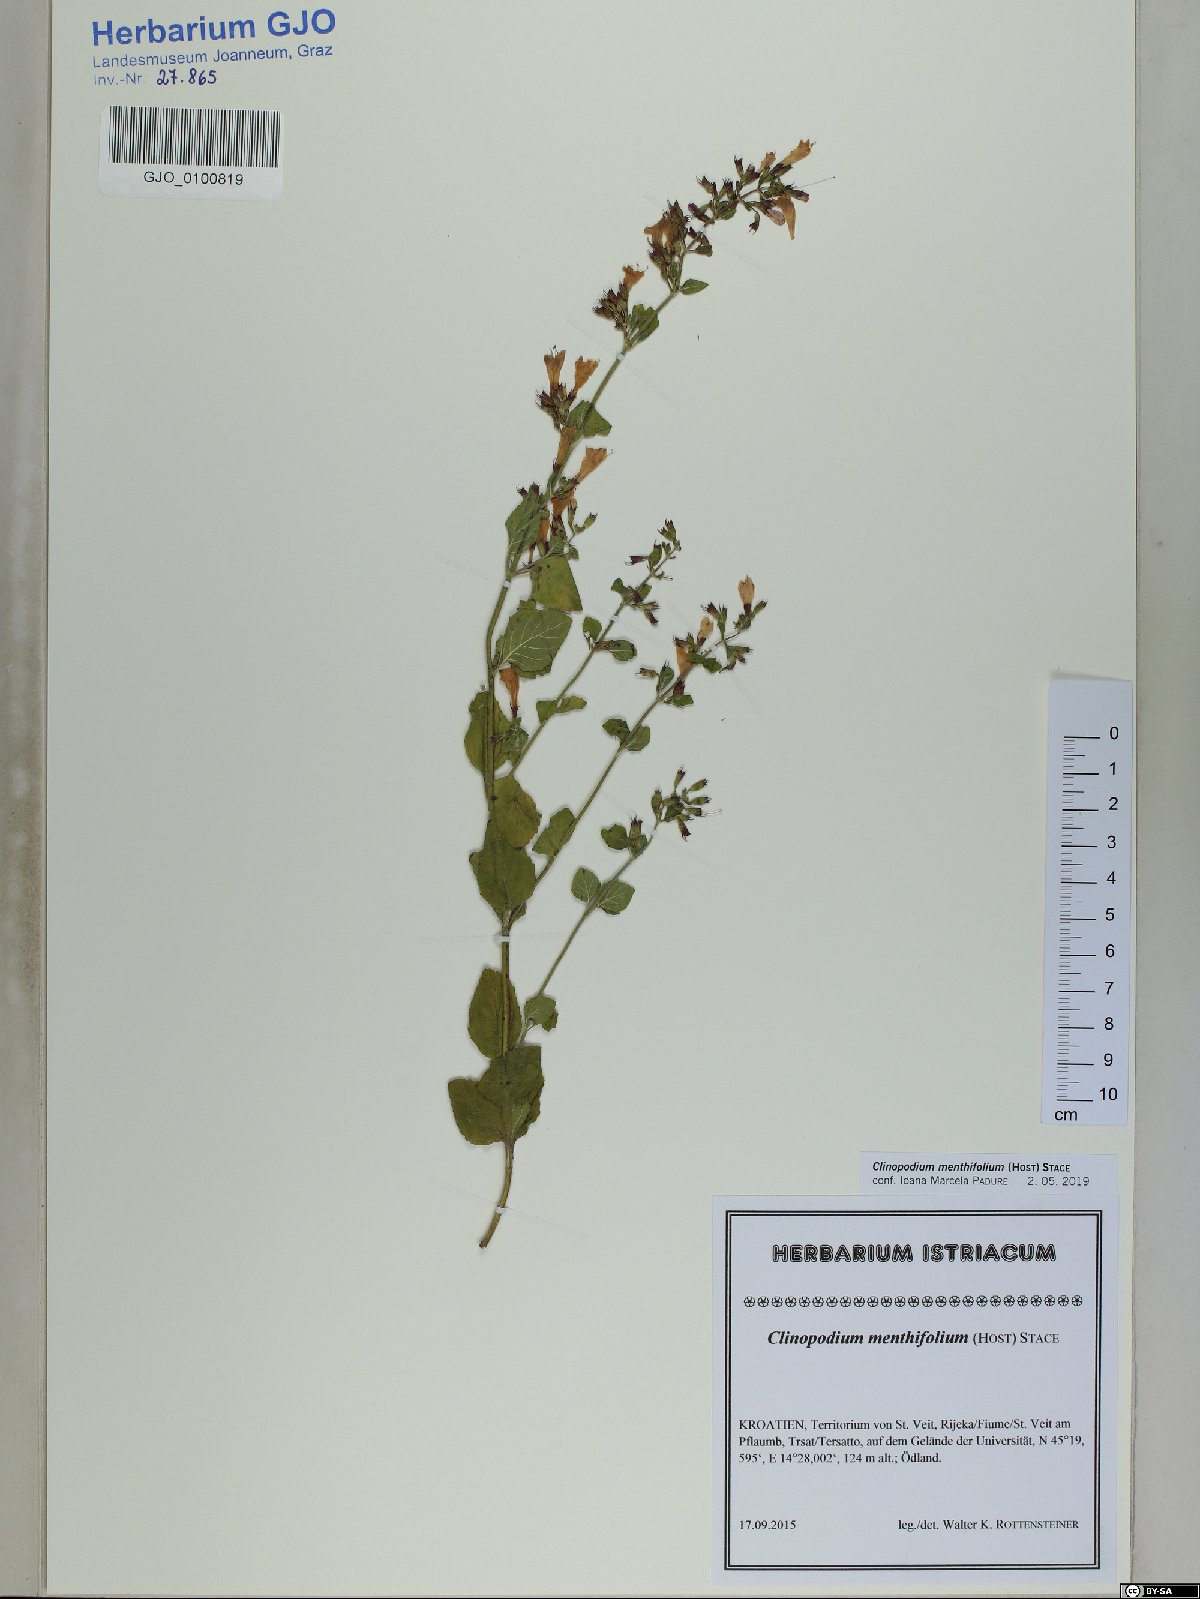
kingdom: Plantae
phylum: Tracheophyta
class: Magnoliopsida
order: Lamiales
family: Lamiaceae
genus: Clinopodium
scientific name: Clinopodium menthifolium
